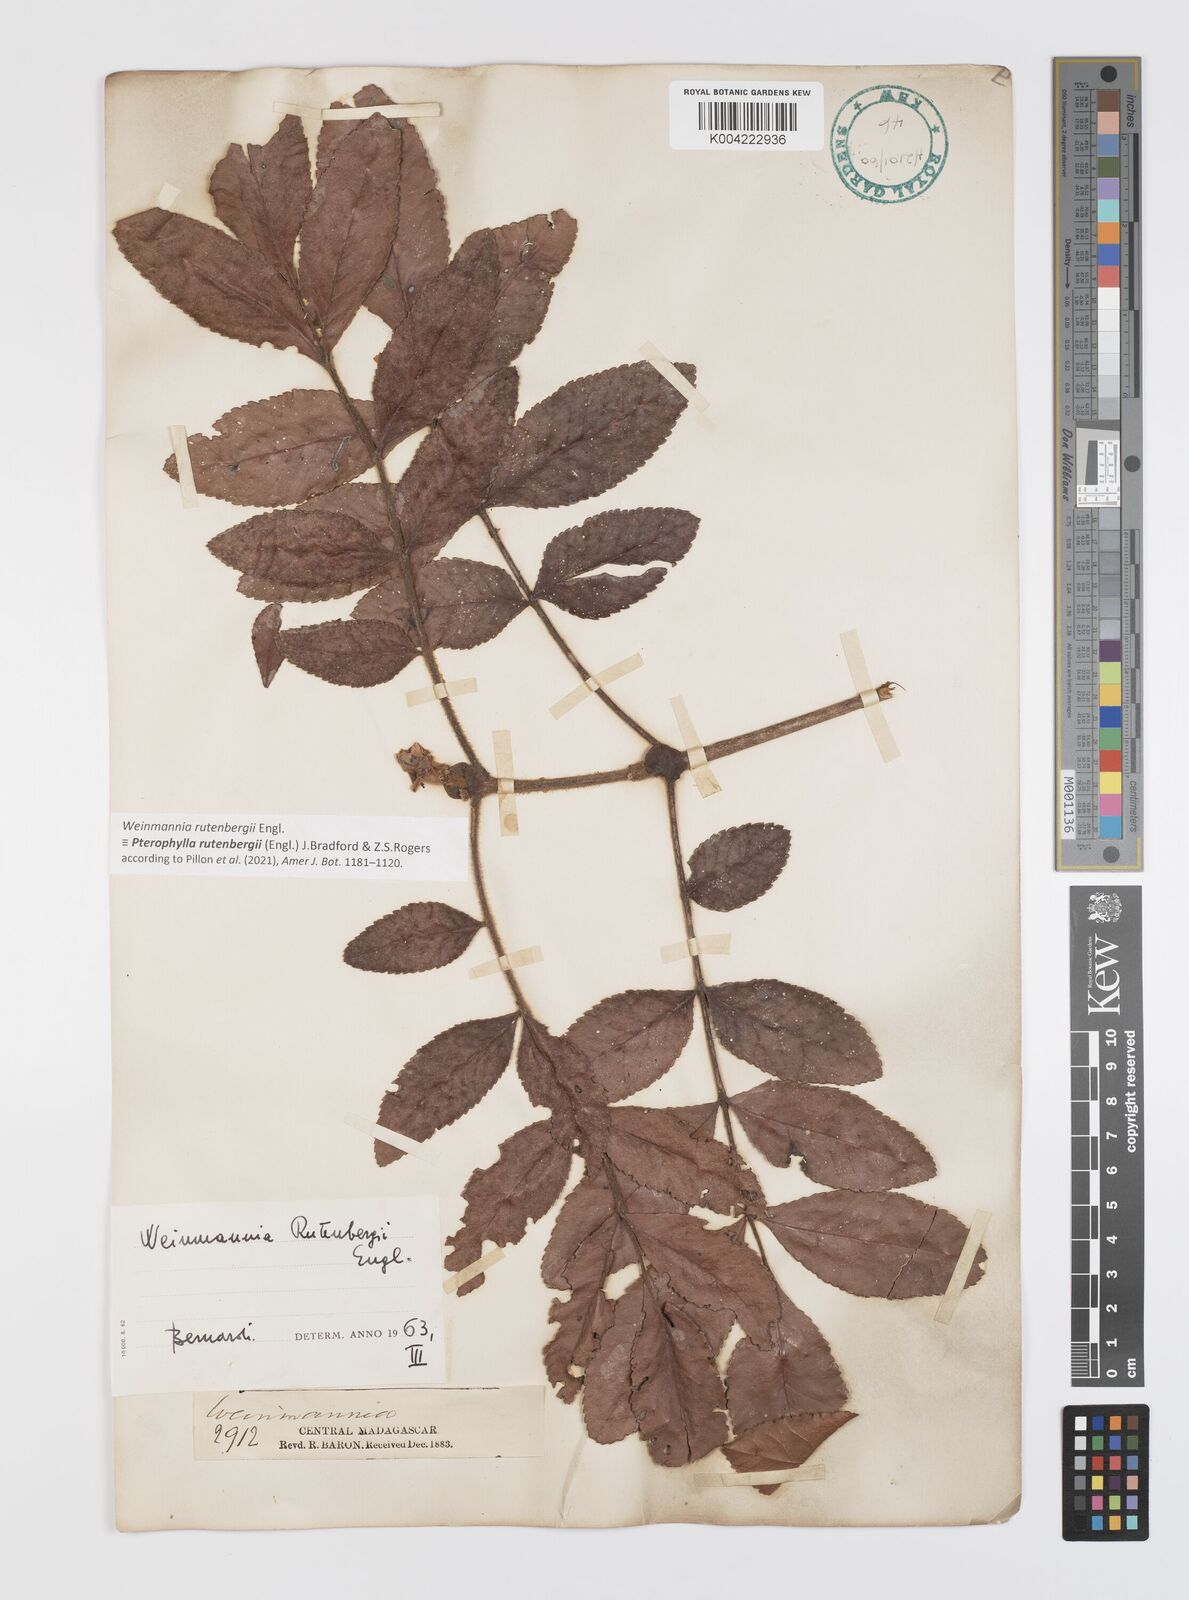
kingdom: Plantae
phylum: Tracheophyta
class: Magnoliopsida
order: Oxalidales
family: Cunoniaceae
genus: Pterophylla
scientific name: Pterophylla rutenbergii
